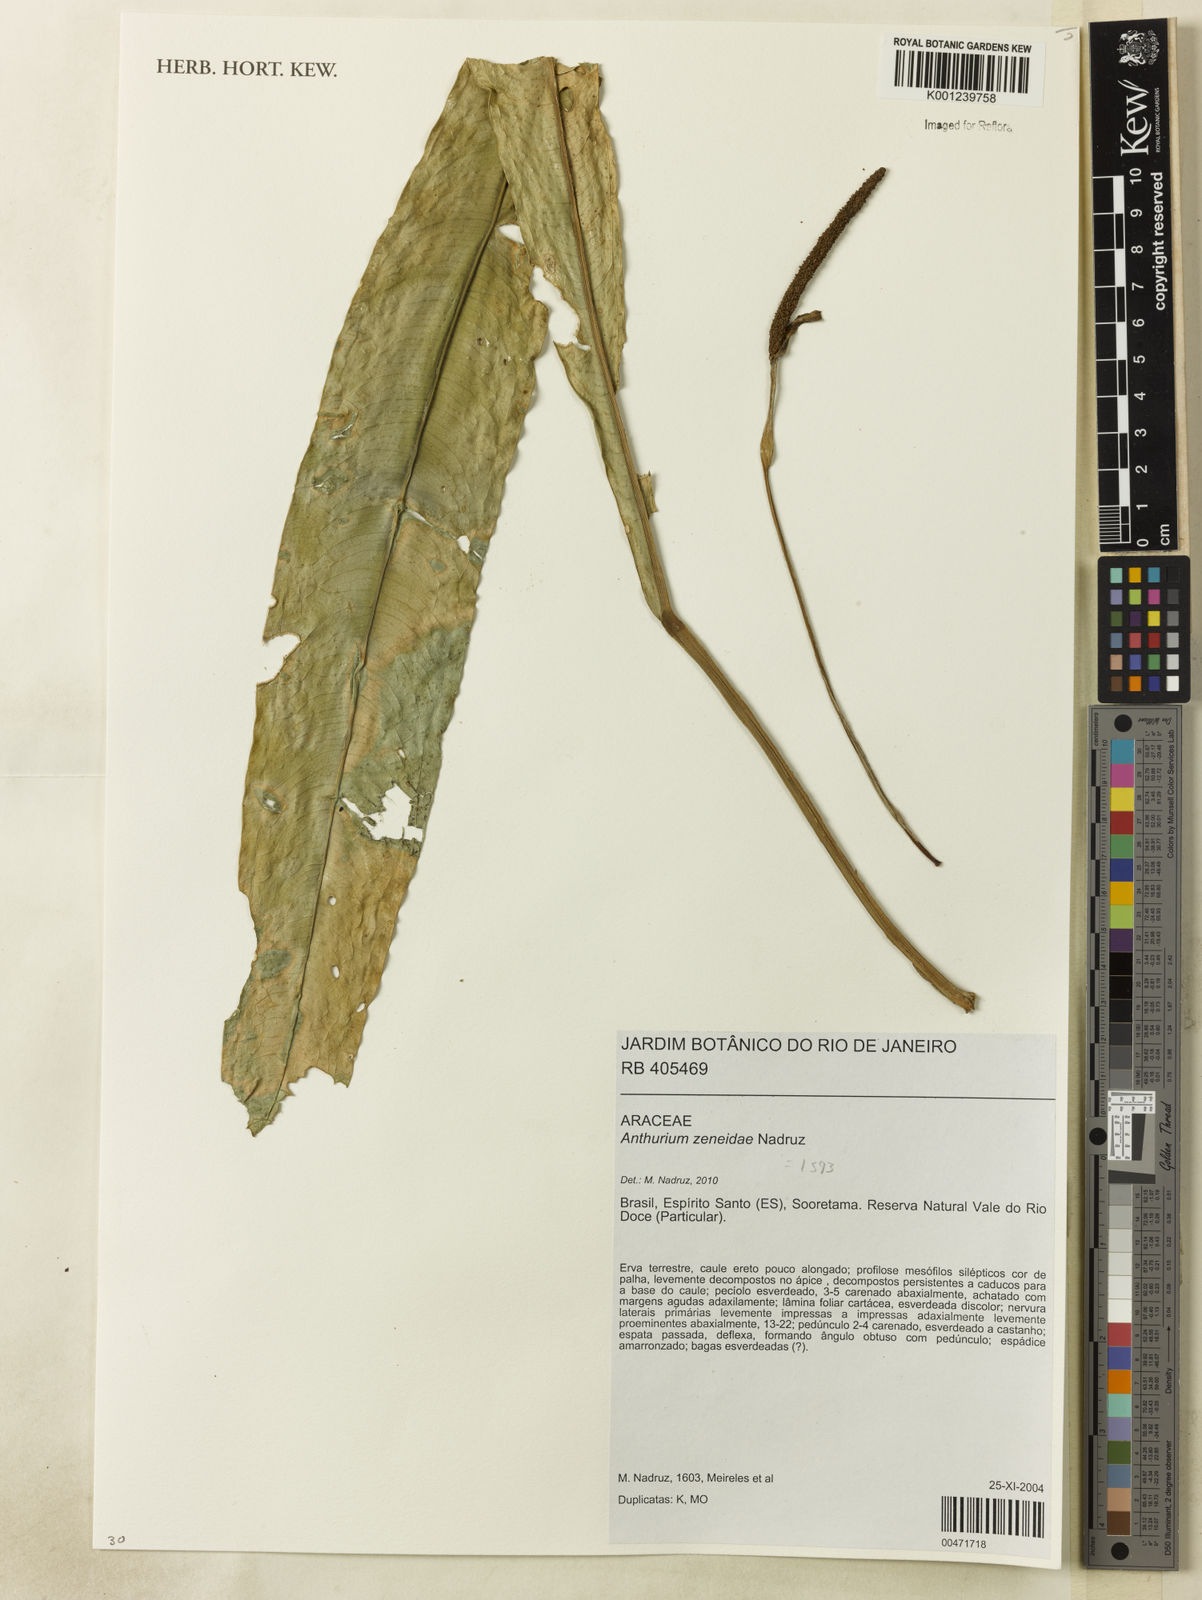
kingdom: Plantae
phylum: Tracheophyta
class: Liliopsida
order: Alismatales
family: Araceae
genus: Anthurium
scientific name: Anthurium zeneidae
